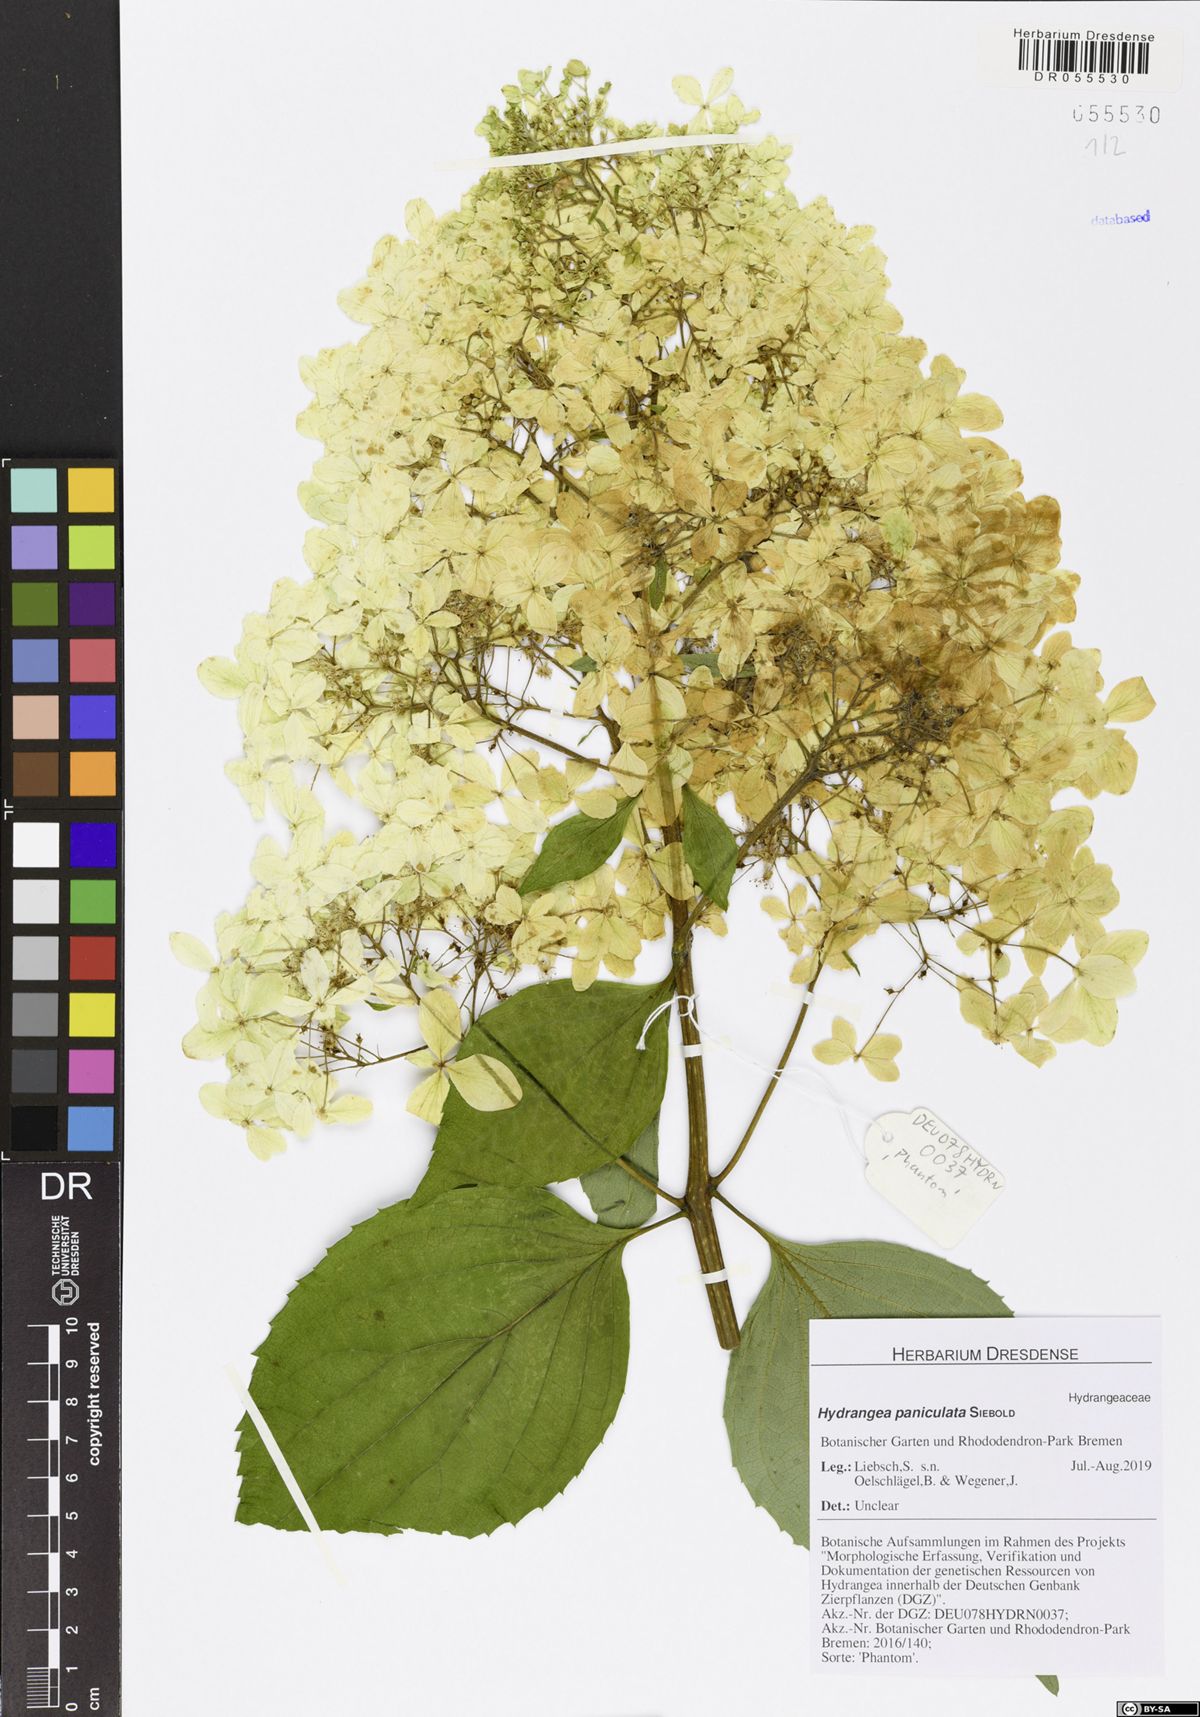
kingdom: Plantae
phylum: Tracheophyta
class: Magnoliopsida
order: Cornales
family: Hydrangeaceae
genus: Hydrangea
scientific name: Hydrangea paniculata
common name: Panicled hydrangea
